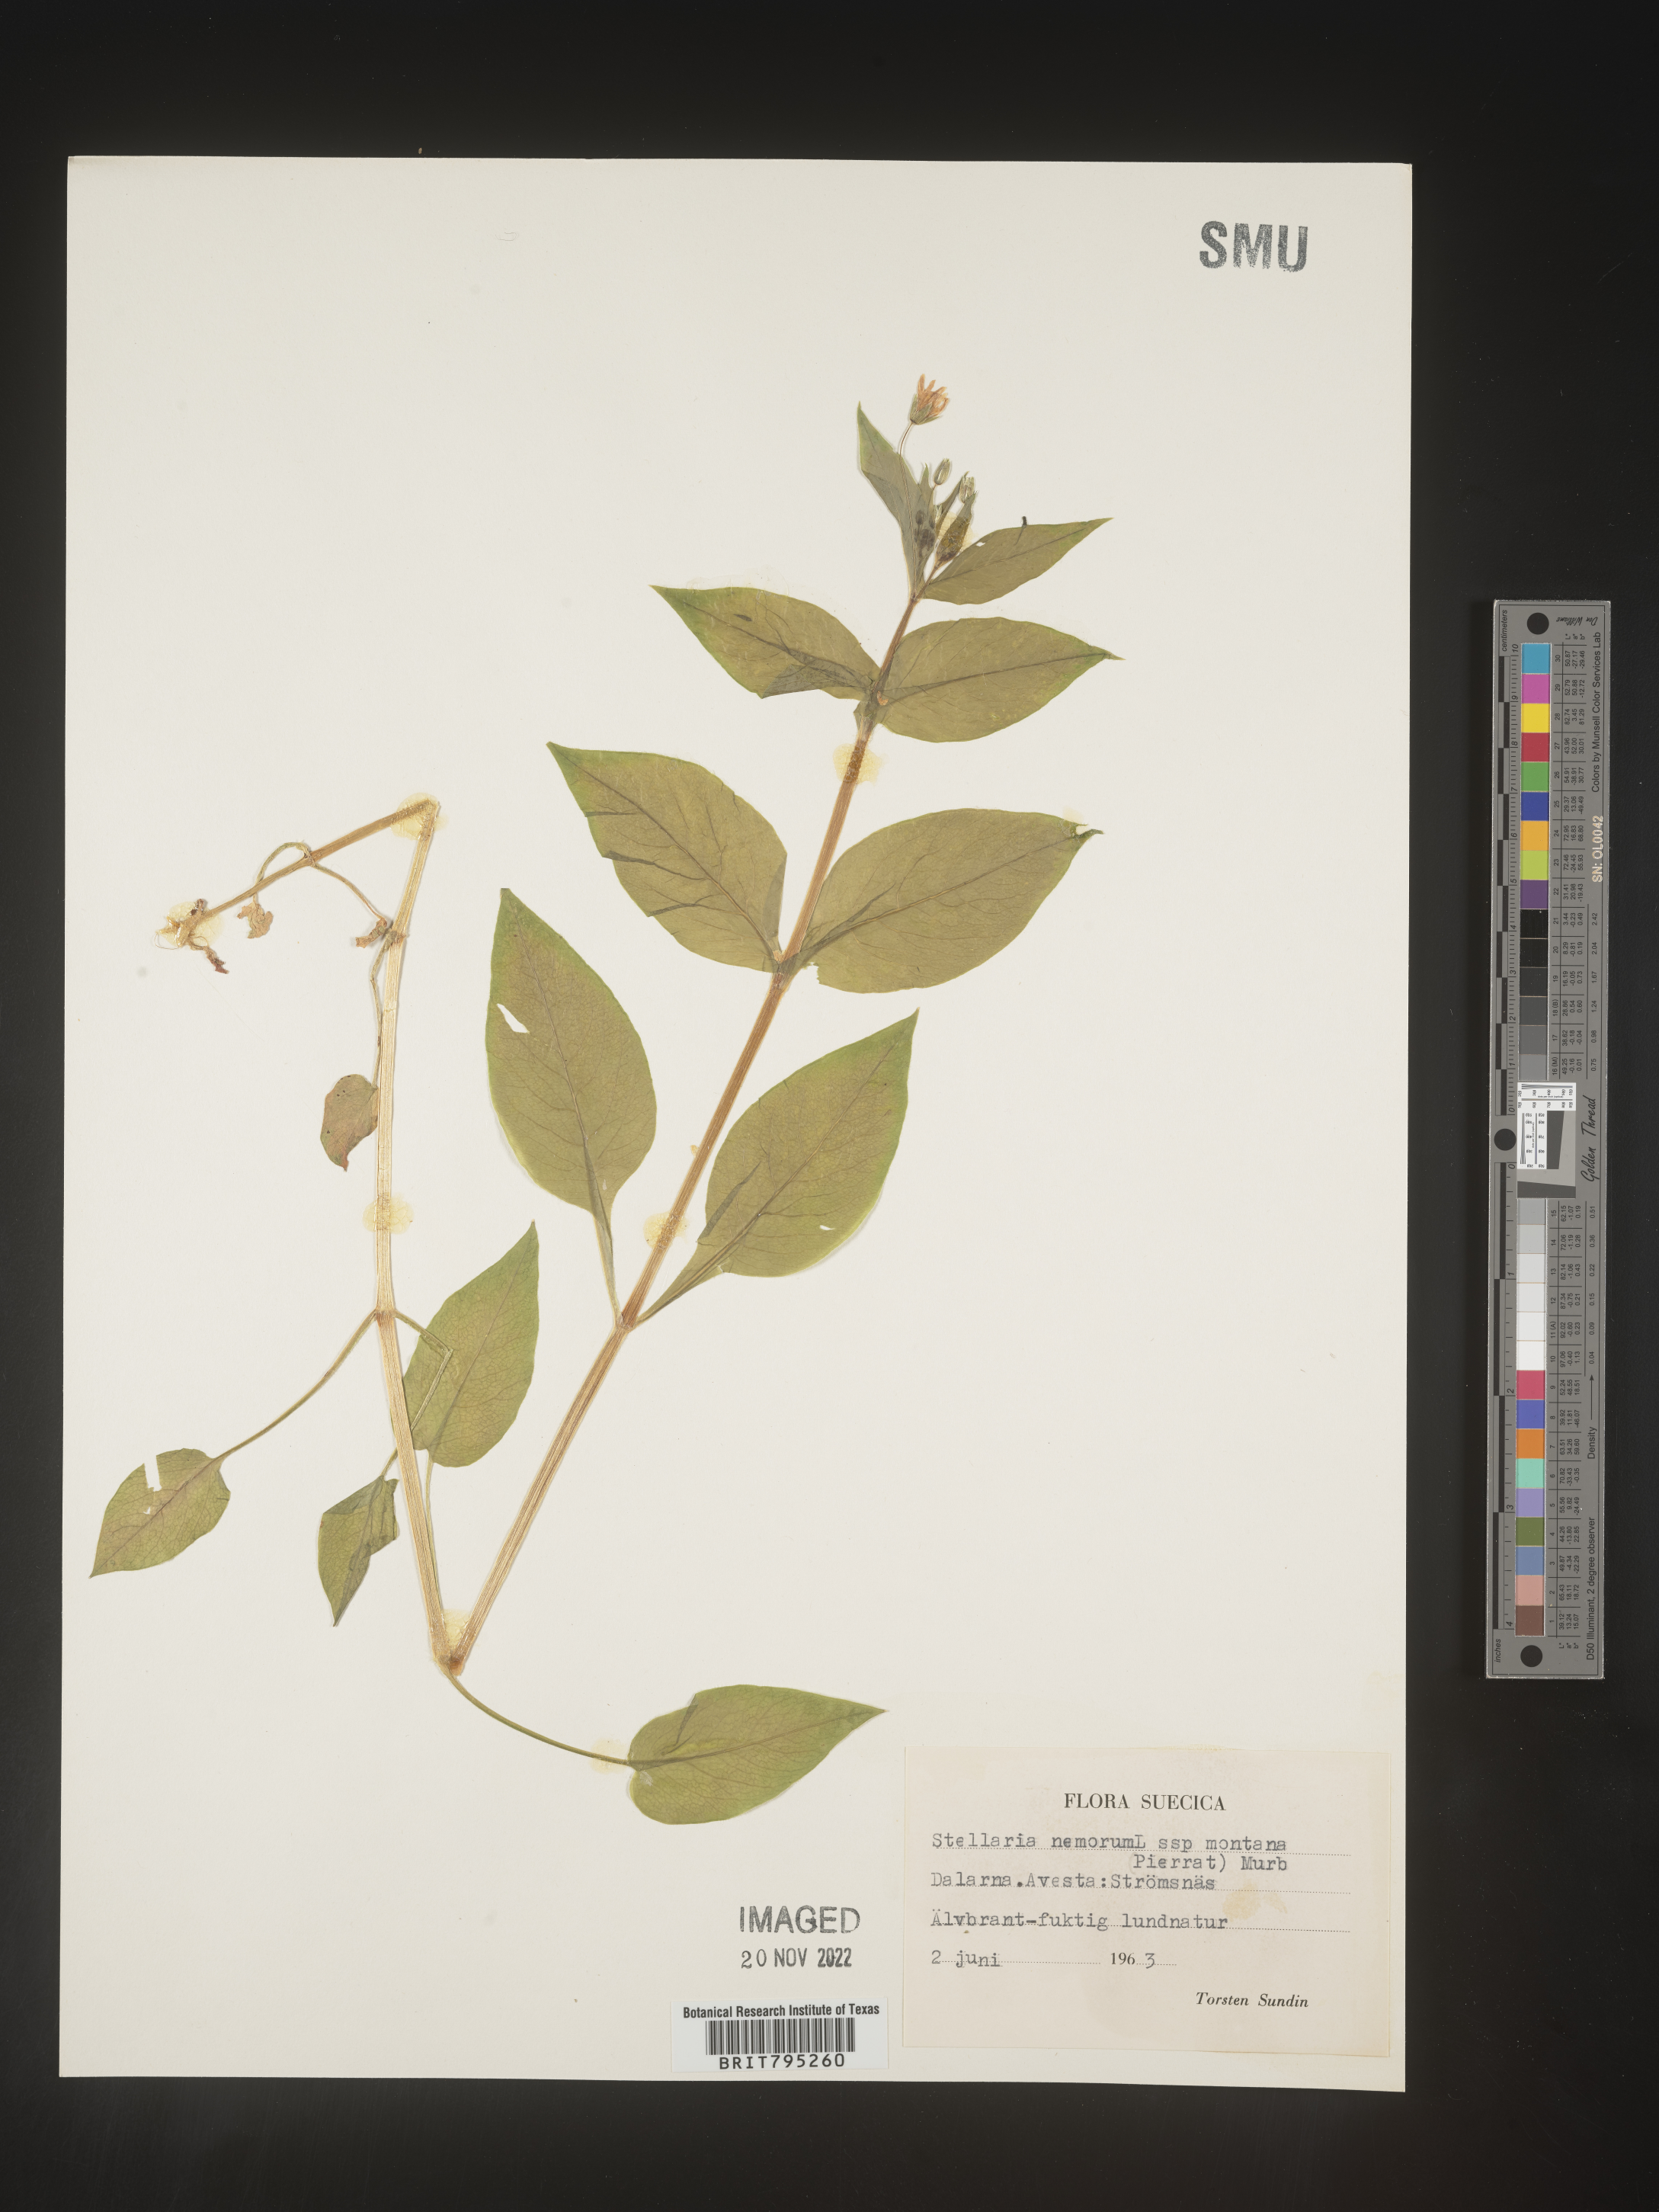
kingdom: Plantae
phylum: Tracheophyta
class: Magnoliopsida
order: Caryophyllales
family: Caryophyllaceae
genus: Stellaria
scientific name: Stellaria
